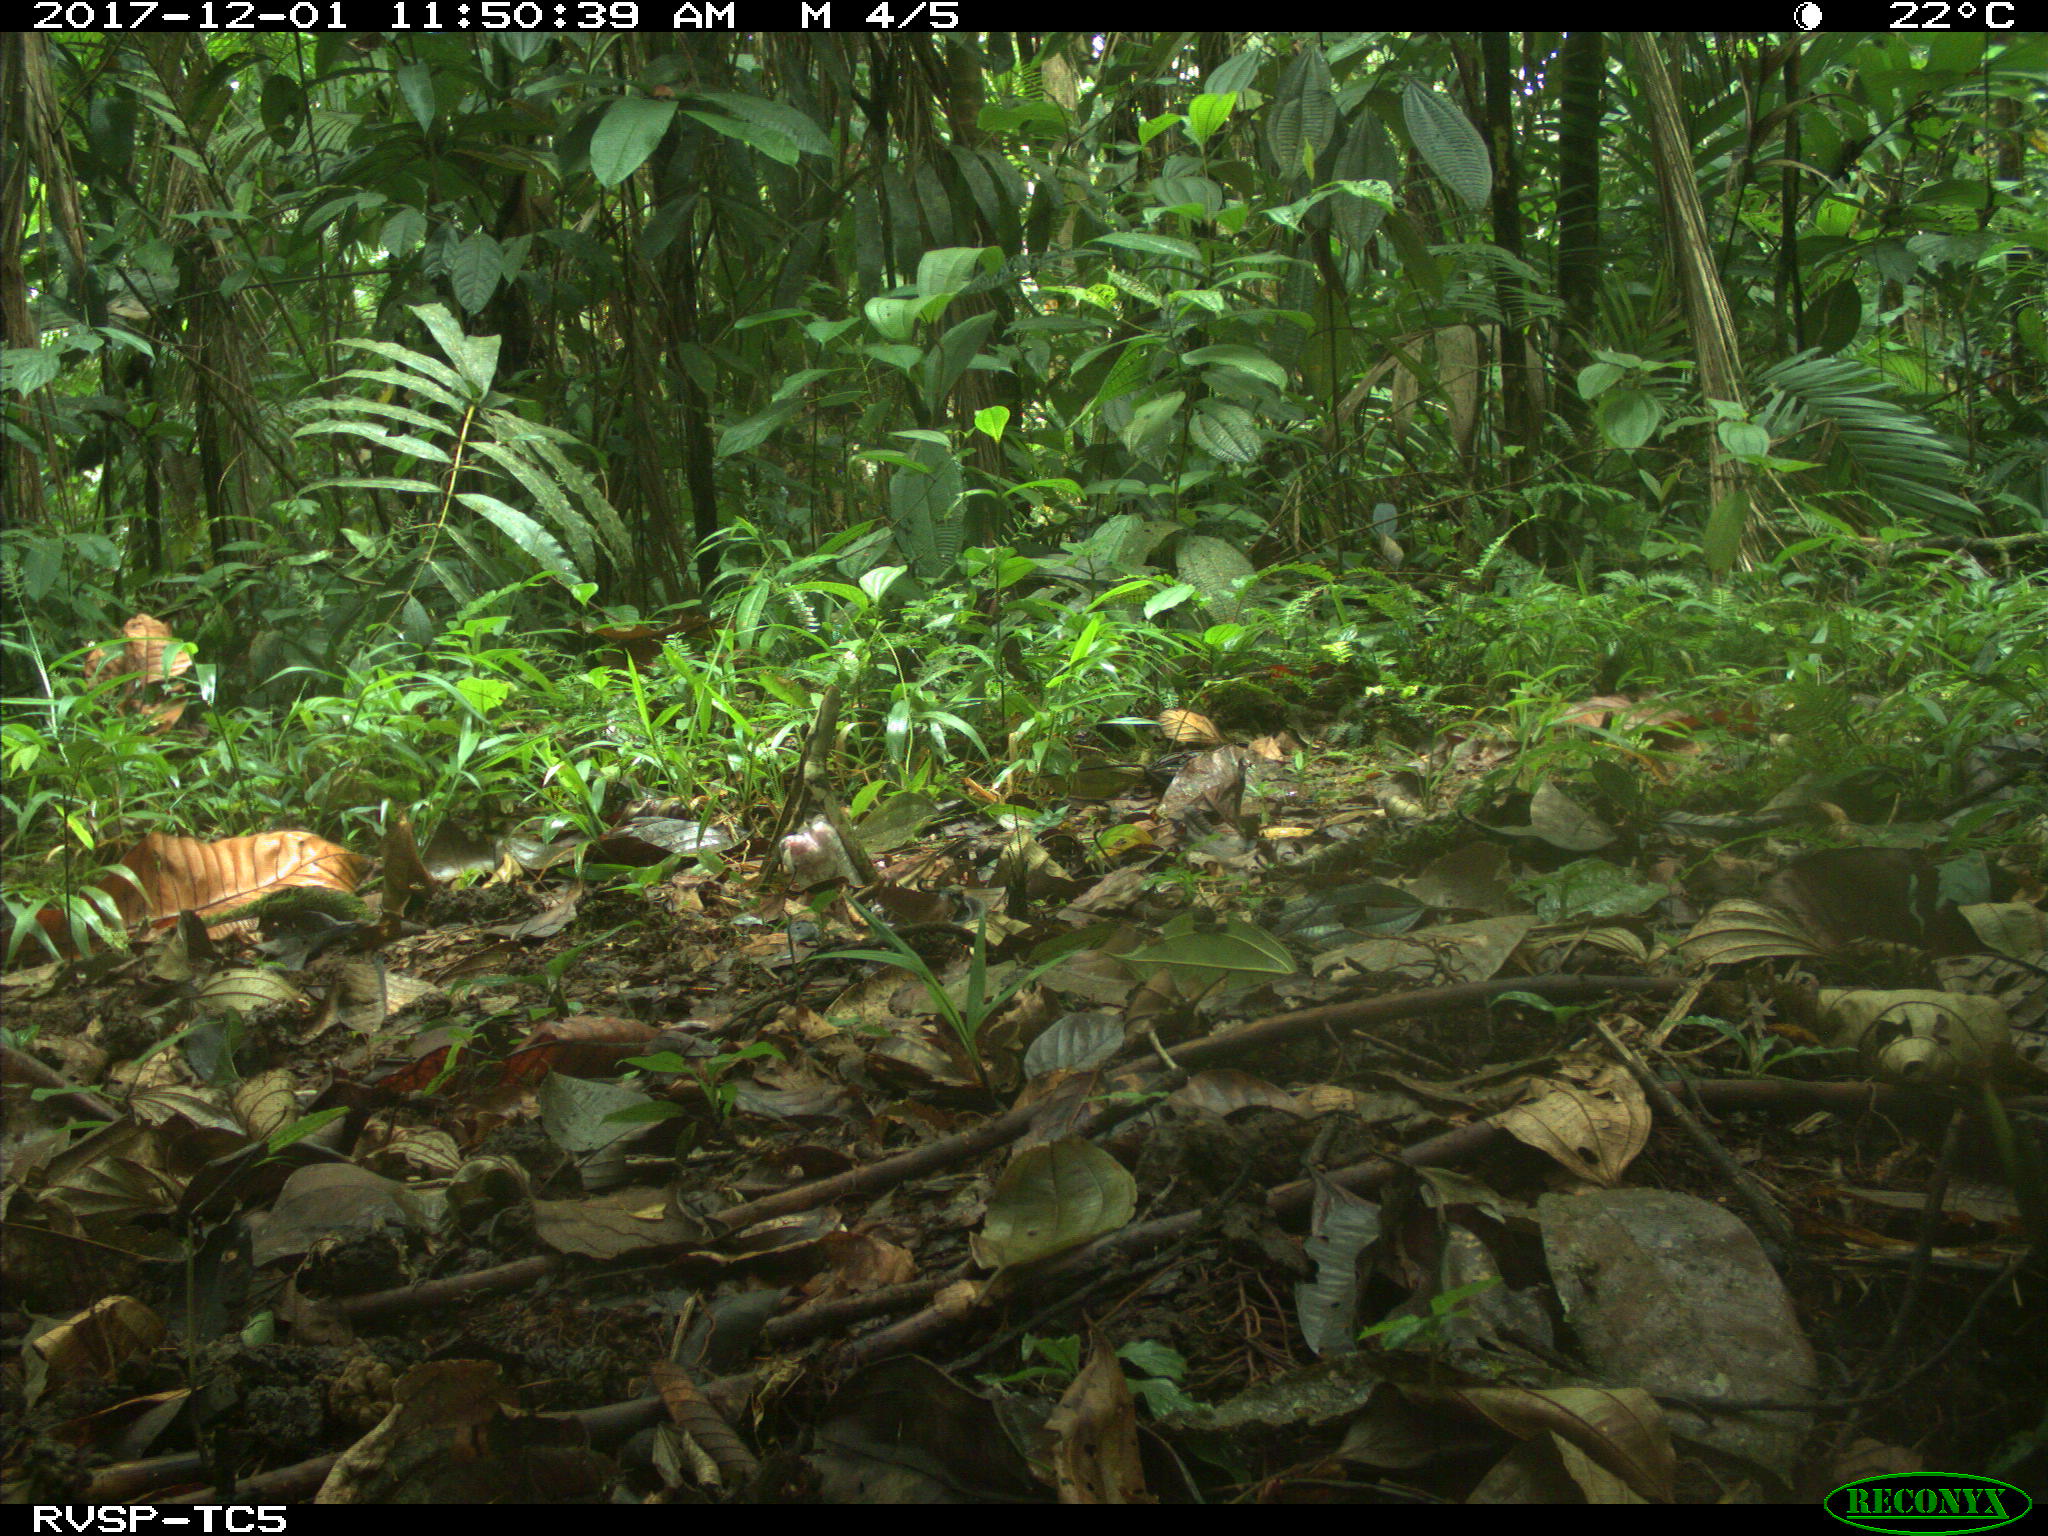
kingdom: Animalia
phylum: Chordata
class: Mammalia
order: Rodentia
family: Dasyproctidae
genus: Dasyprocta
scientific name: Dasyprocta punctata
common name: Central american agouti
